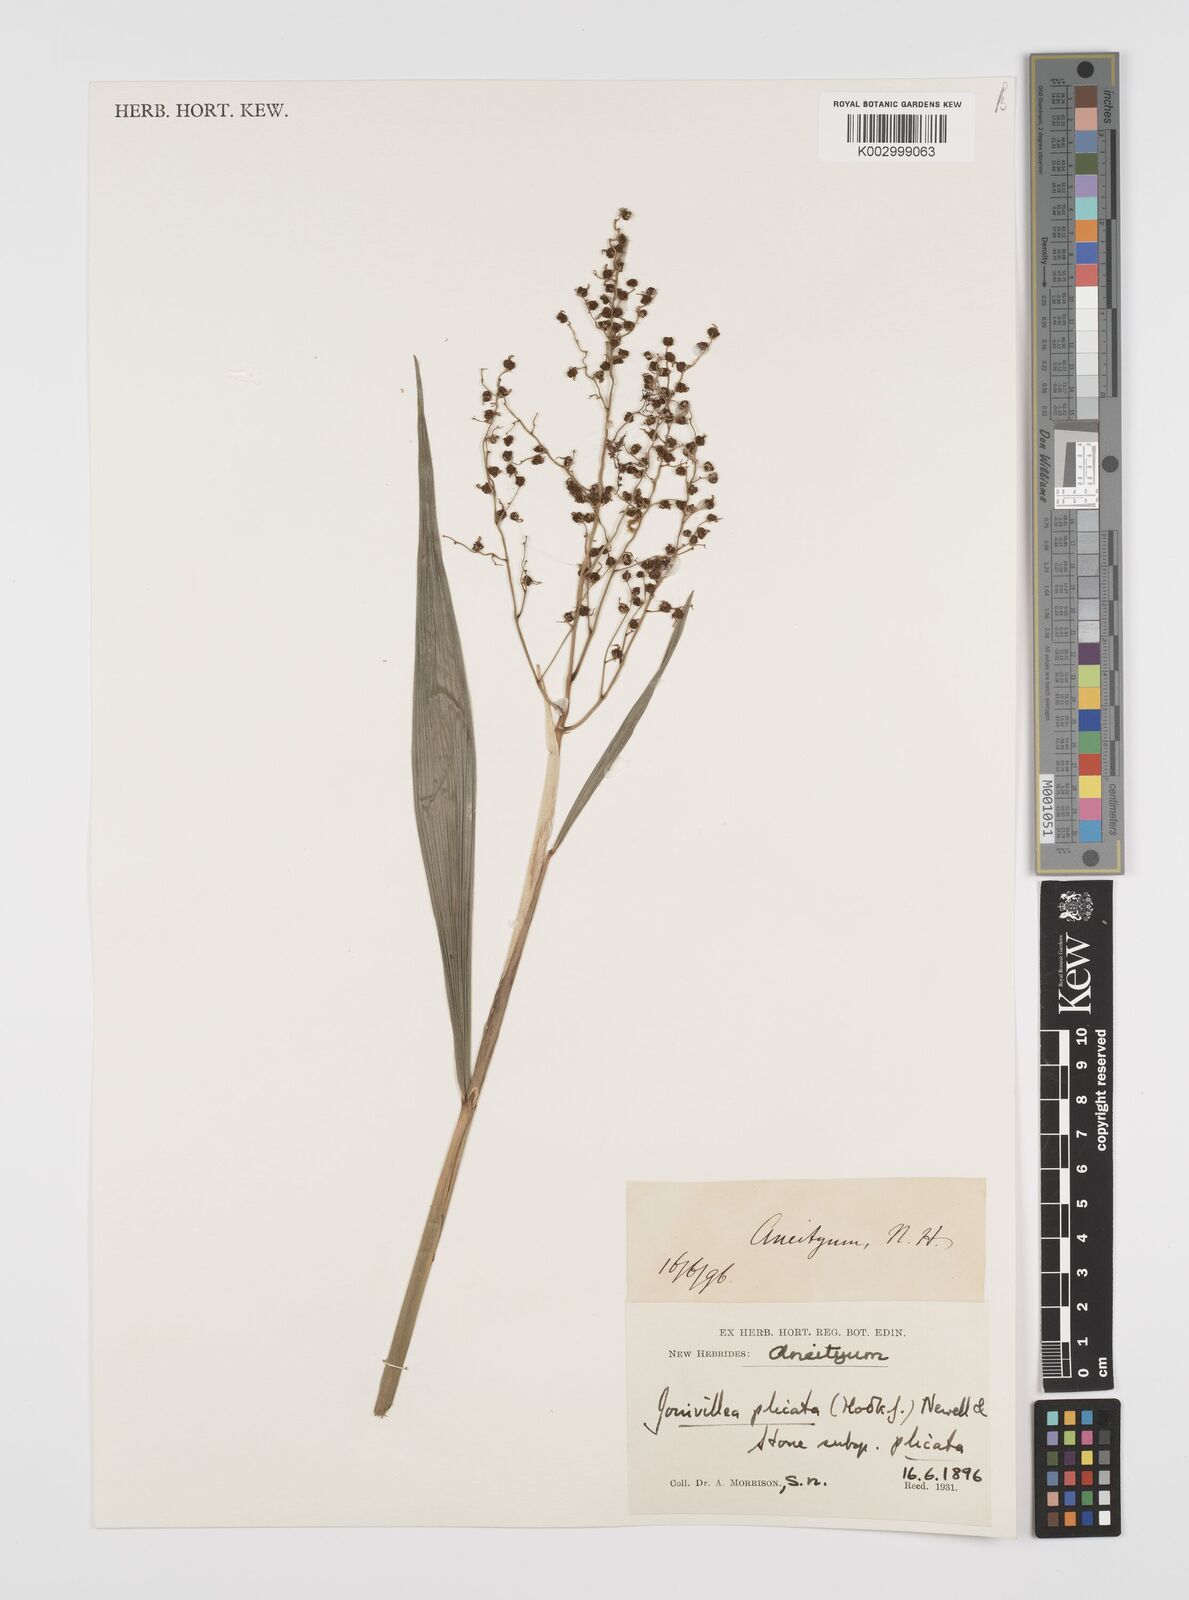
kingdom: Plantae
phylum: Tracheophyta
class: Liliopsida
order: Poales
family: Joinvilleaceae
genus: Joinvillea
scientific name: Joinvillea plicata
